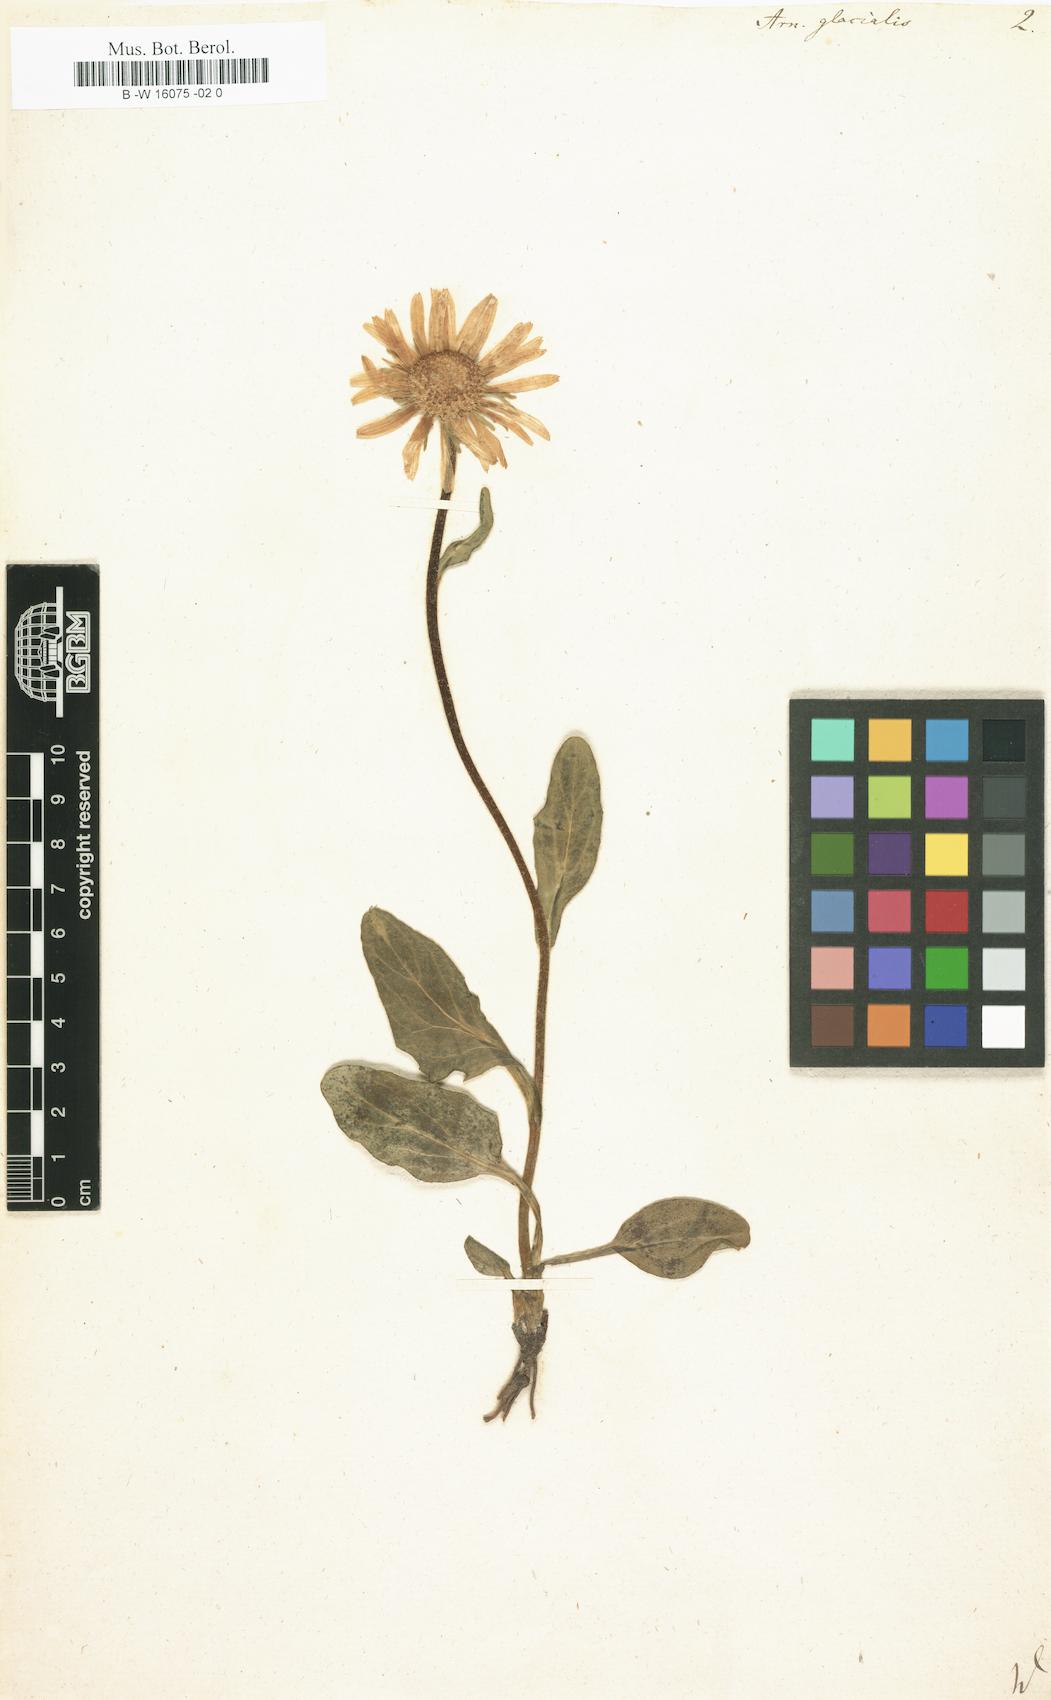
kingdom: Plantae
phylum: Tracheophyta
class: Magnoliopsida
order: Asterales
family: Asteraceae
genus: Doronicum
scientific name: Doronicum glaciale
